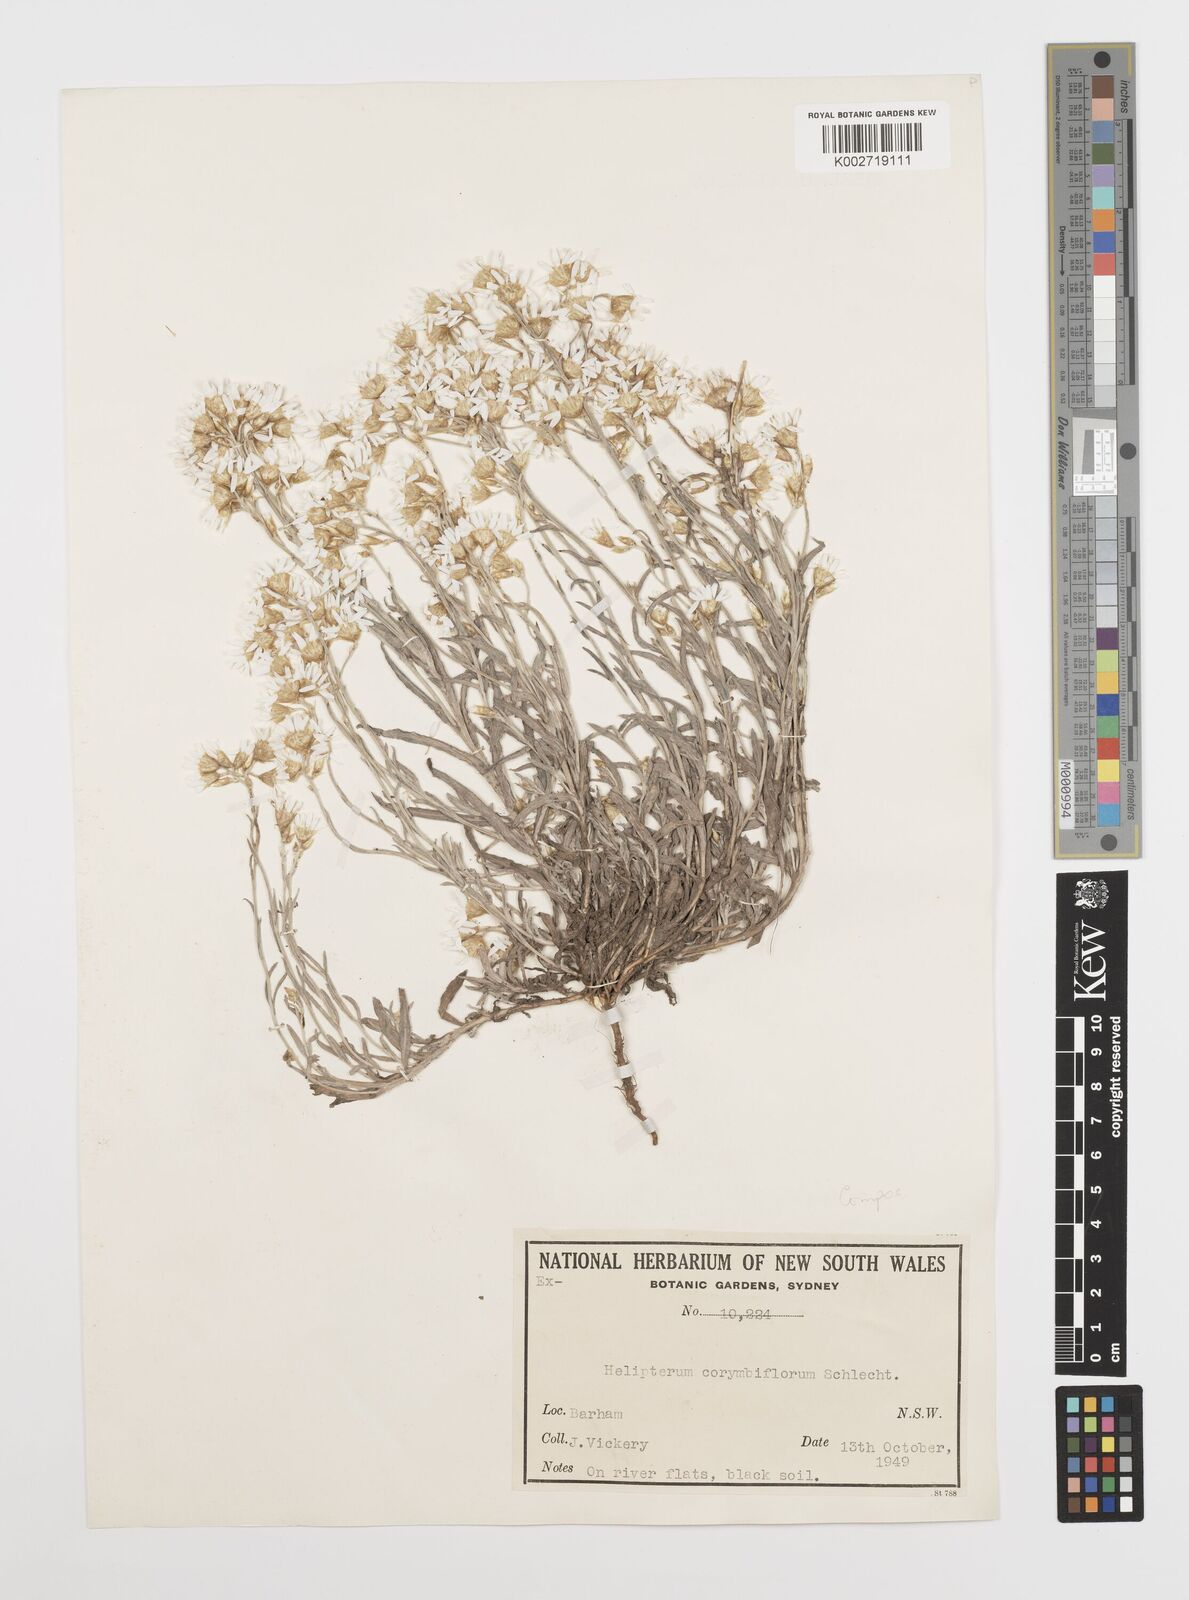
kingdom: Plantae
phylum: Tracheophyta
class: Magnoliopsida
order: Asterales
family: Asteraceae
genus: Rhodanthe
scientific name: Rhodanthe corymbiflora
